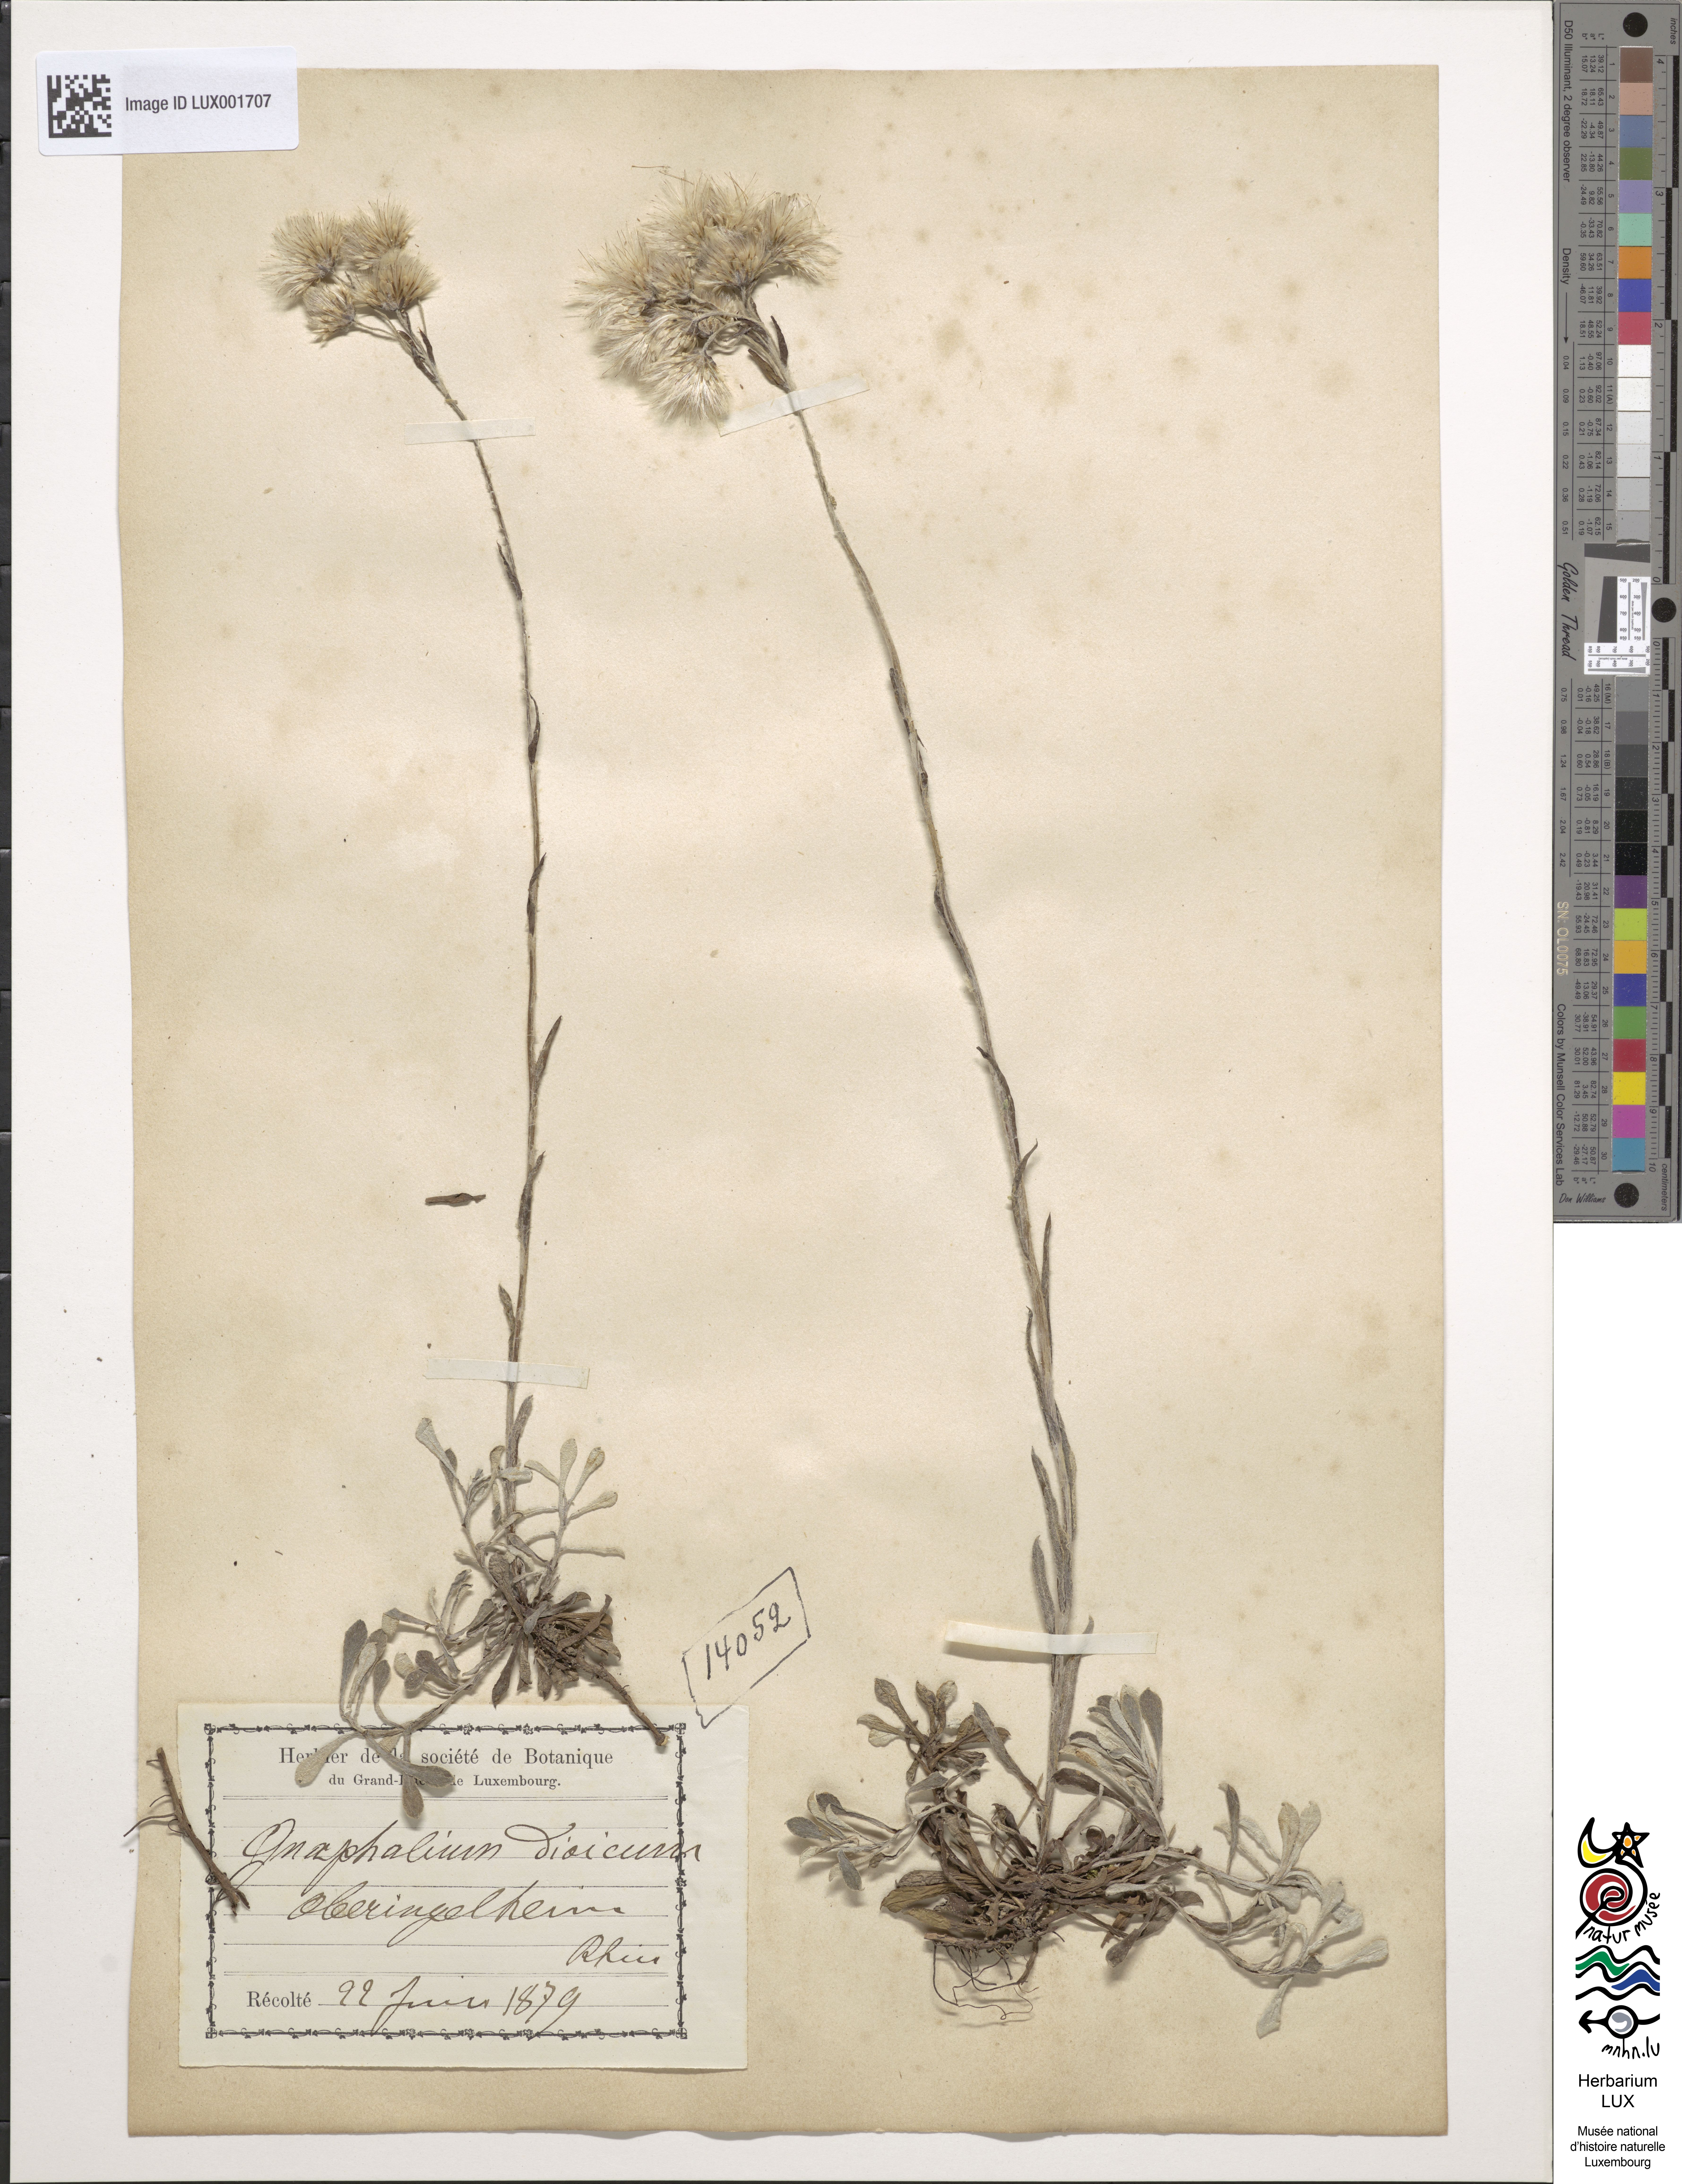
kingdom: Plantae
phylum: Tracheophyta
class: Magnoliopsida
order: Asterales
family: Asteraceae
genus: Antennaria
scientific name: Antennaria dioica
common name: Mountain everlasting
